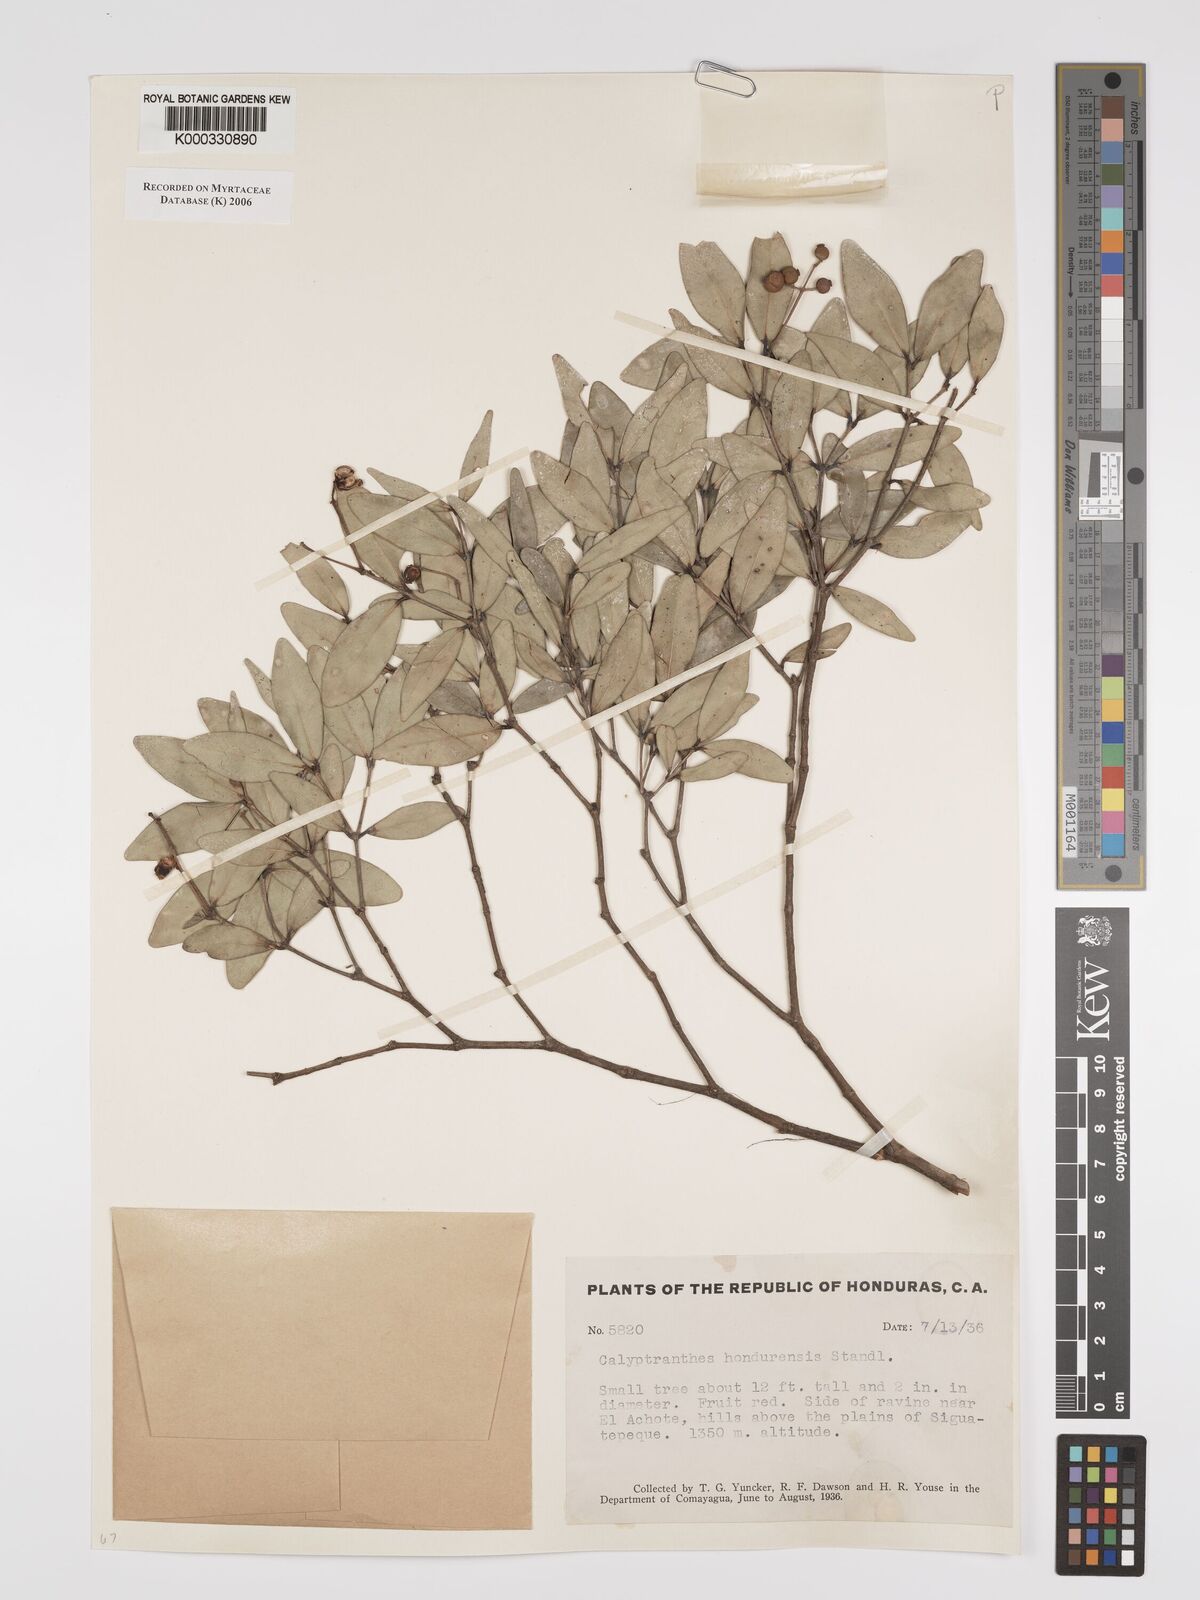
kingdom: Plantae
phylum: Tracheophyta
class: Magnoliopsida
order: Myrtales
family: Myrtaceae
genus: Myrcia
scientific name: Myrcia hondurensis
